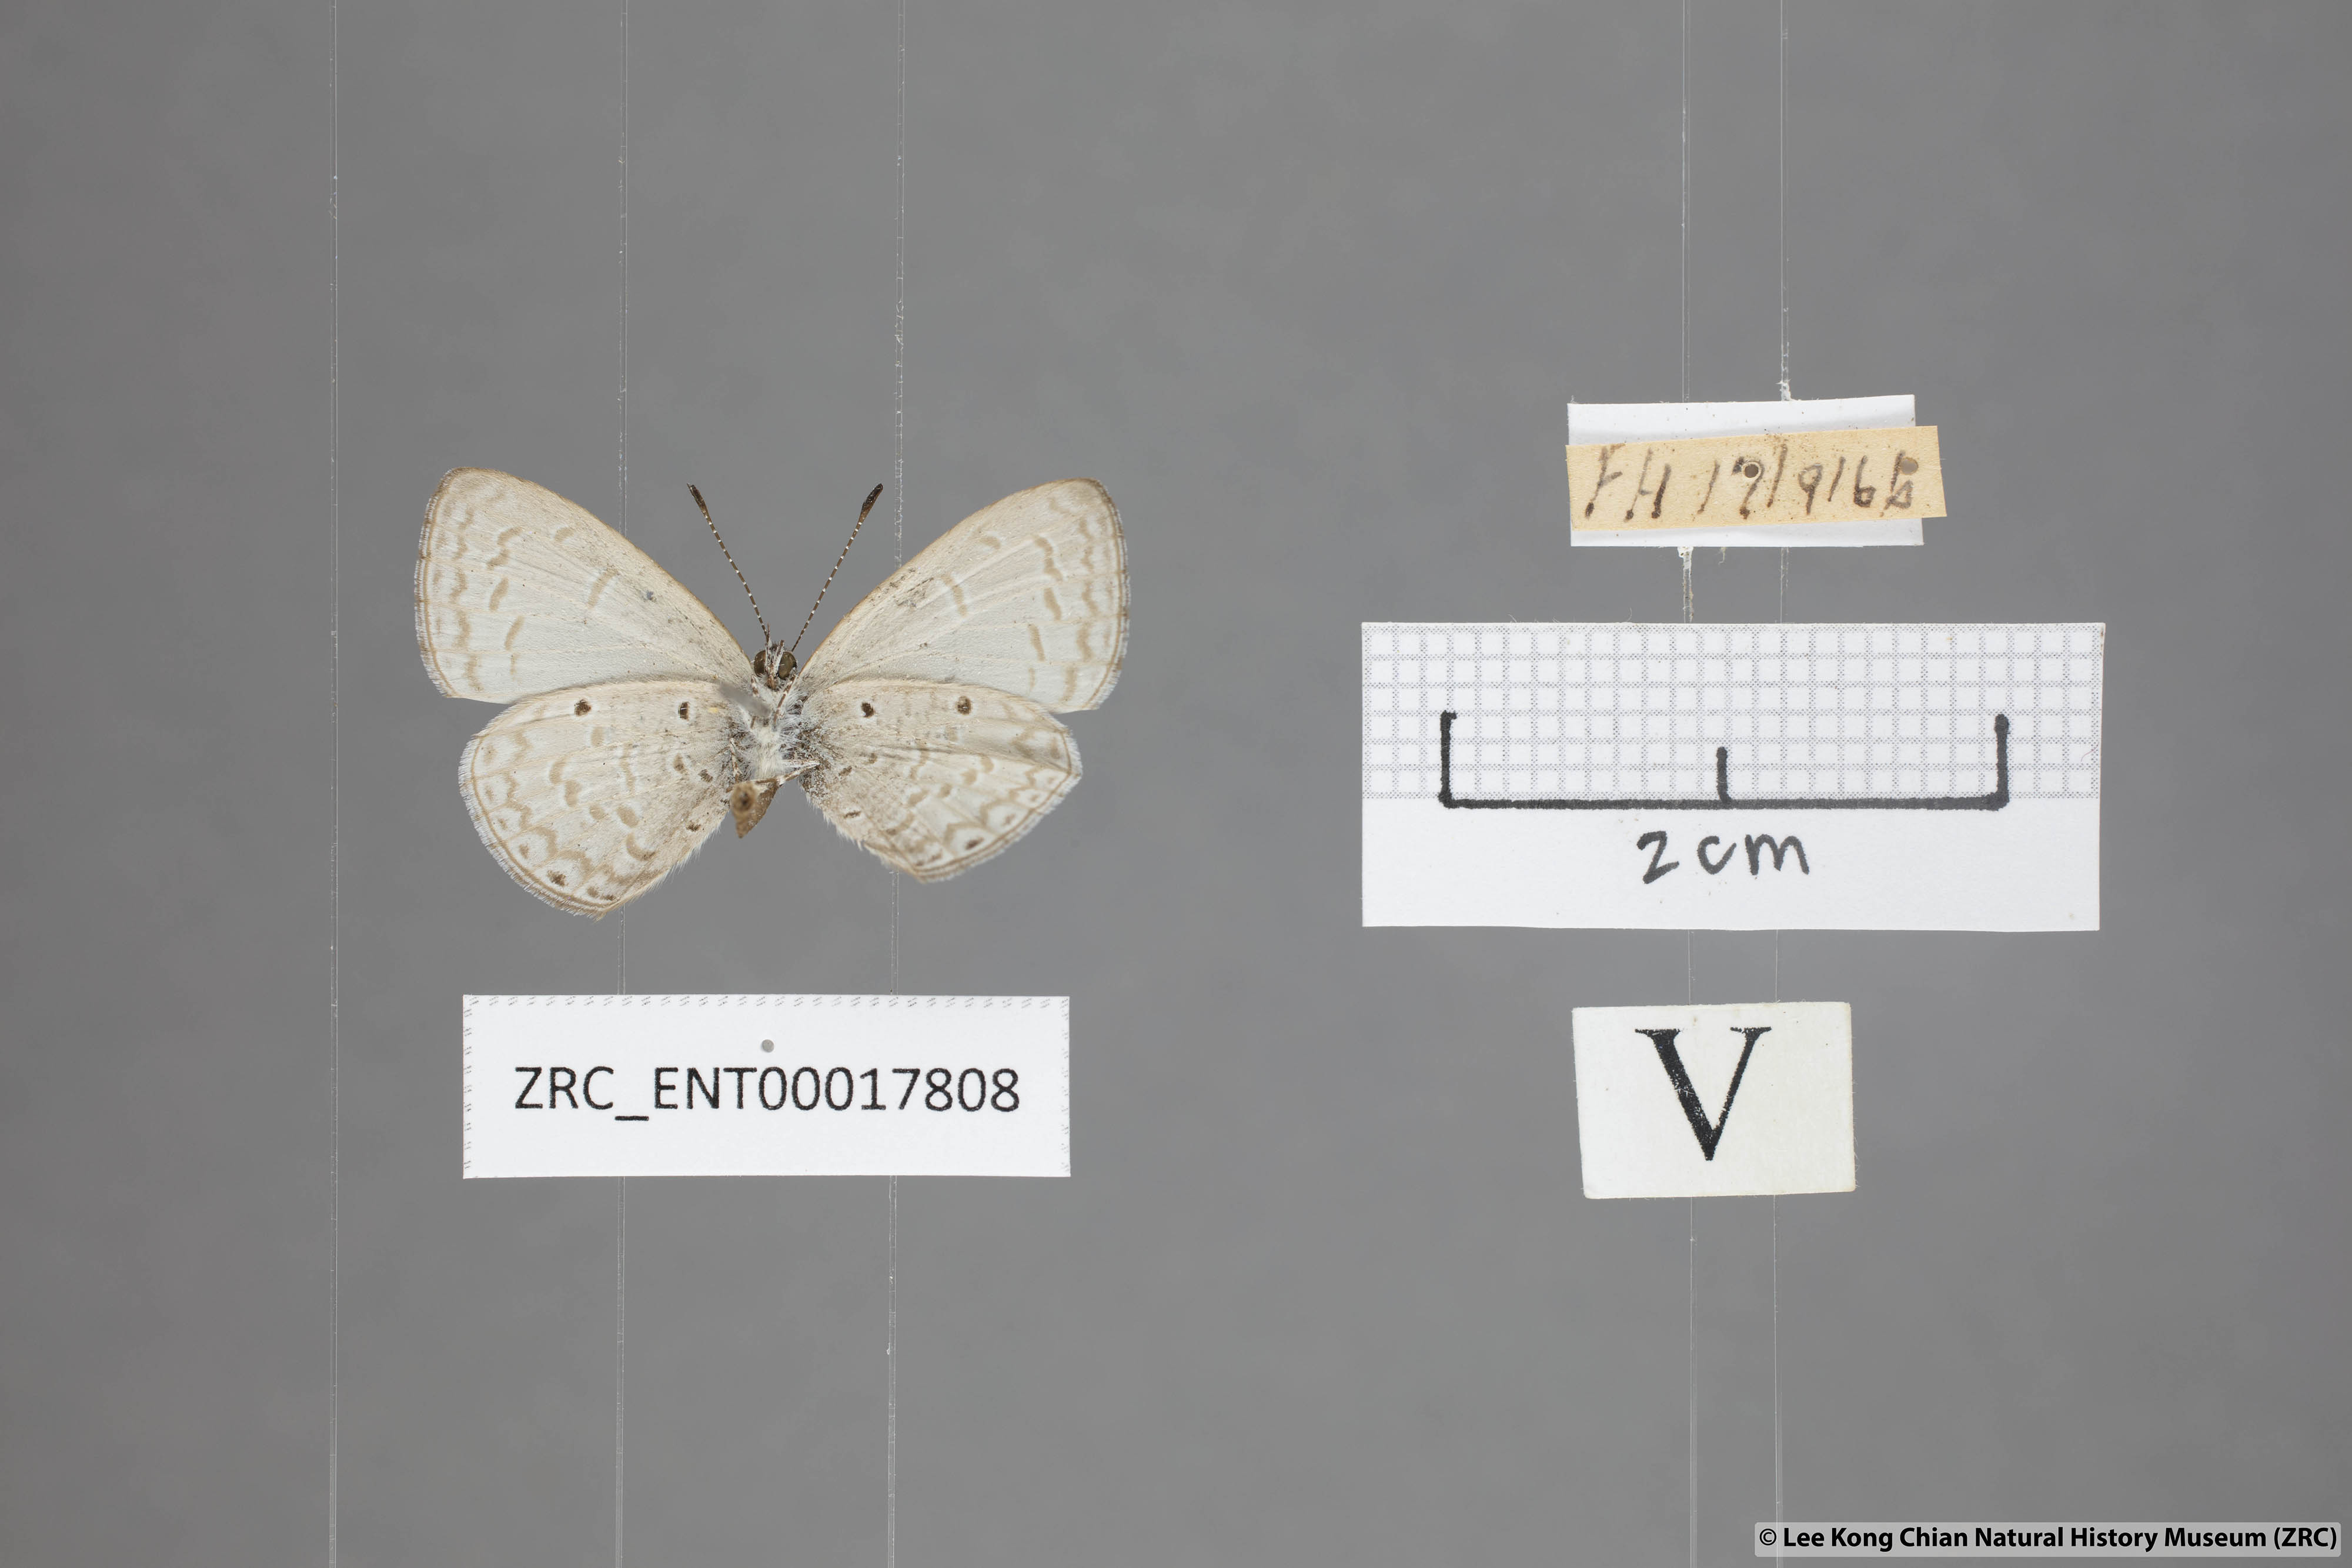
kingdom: Animalia
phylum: Arthropoda
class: Insecta
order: Lepidoptera
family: Lycaenidae
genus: Monodontides
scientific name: Monodontides
